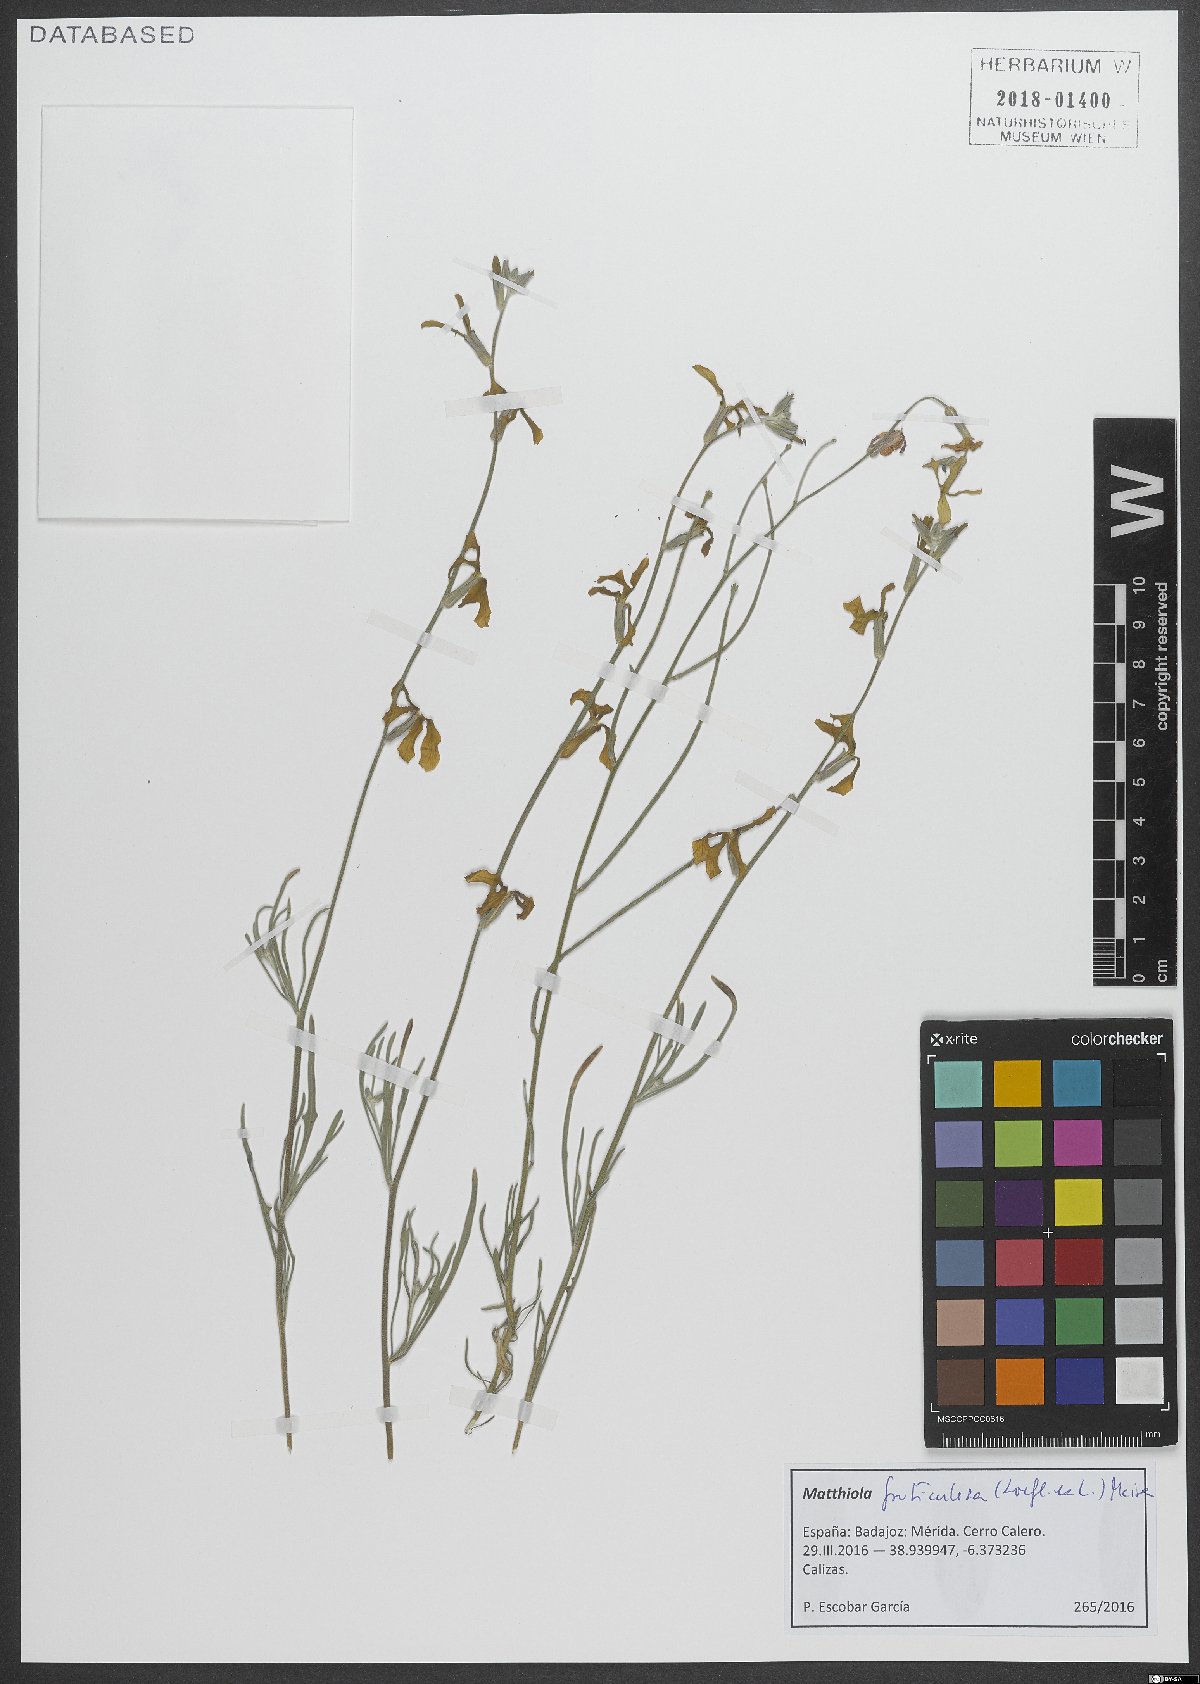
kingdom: Plantae
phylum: Tracheophyta
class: Magnoliopsida
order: Brassicales
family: Brassicaceae
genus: Matthiola
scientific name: Matthiola fruticulosa
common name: Sad stock
